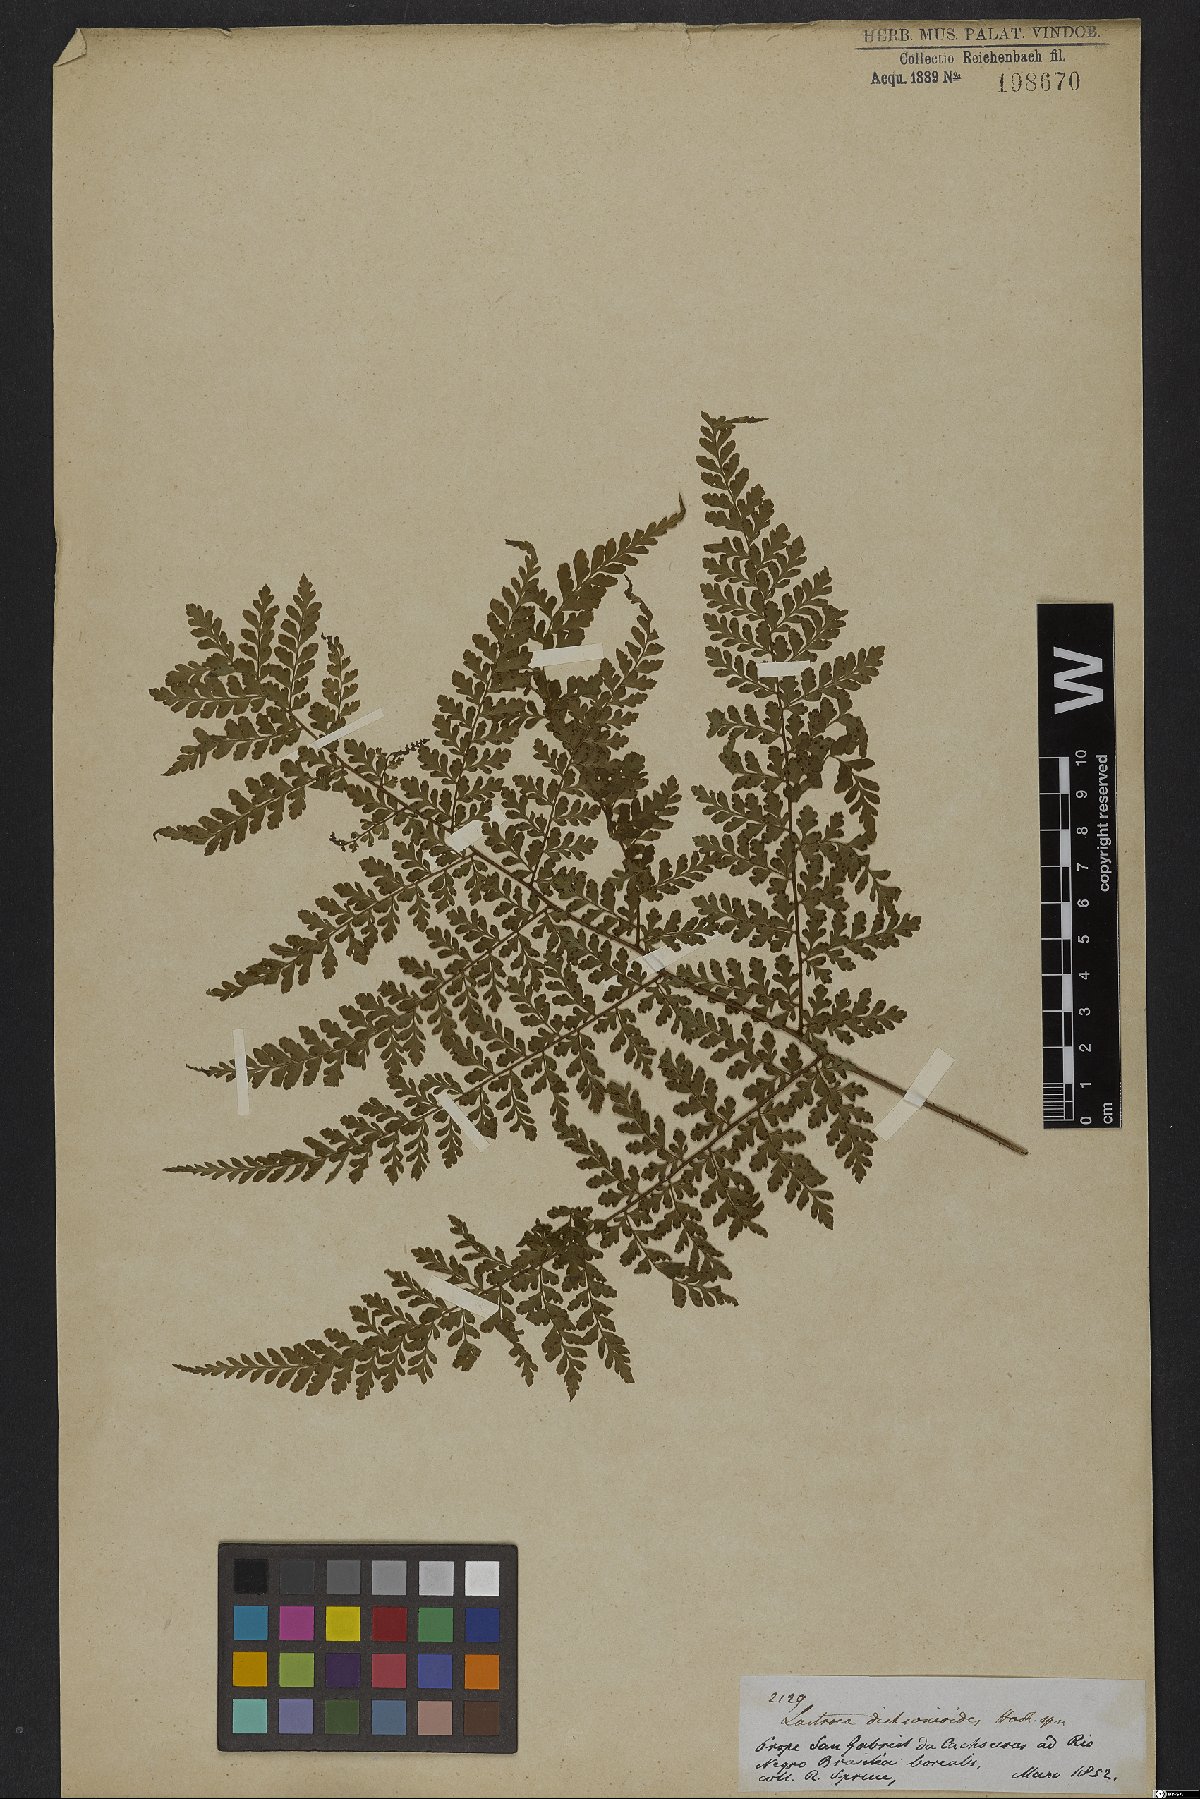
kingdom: Plantae
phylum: Tracheophyta
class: Polypodiopsida
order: Polypodiales
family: Dryopteridaceae
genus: Dryopteris
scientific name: Dryopteris dicksonioides
